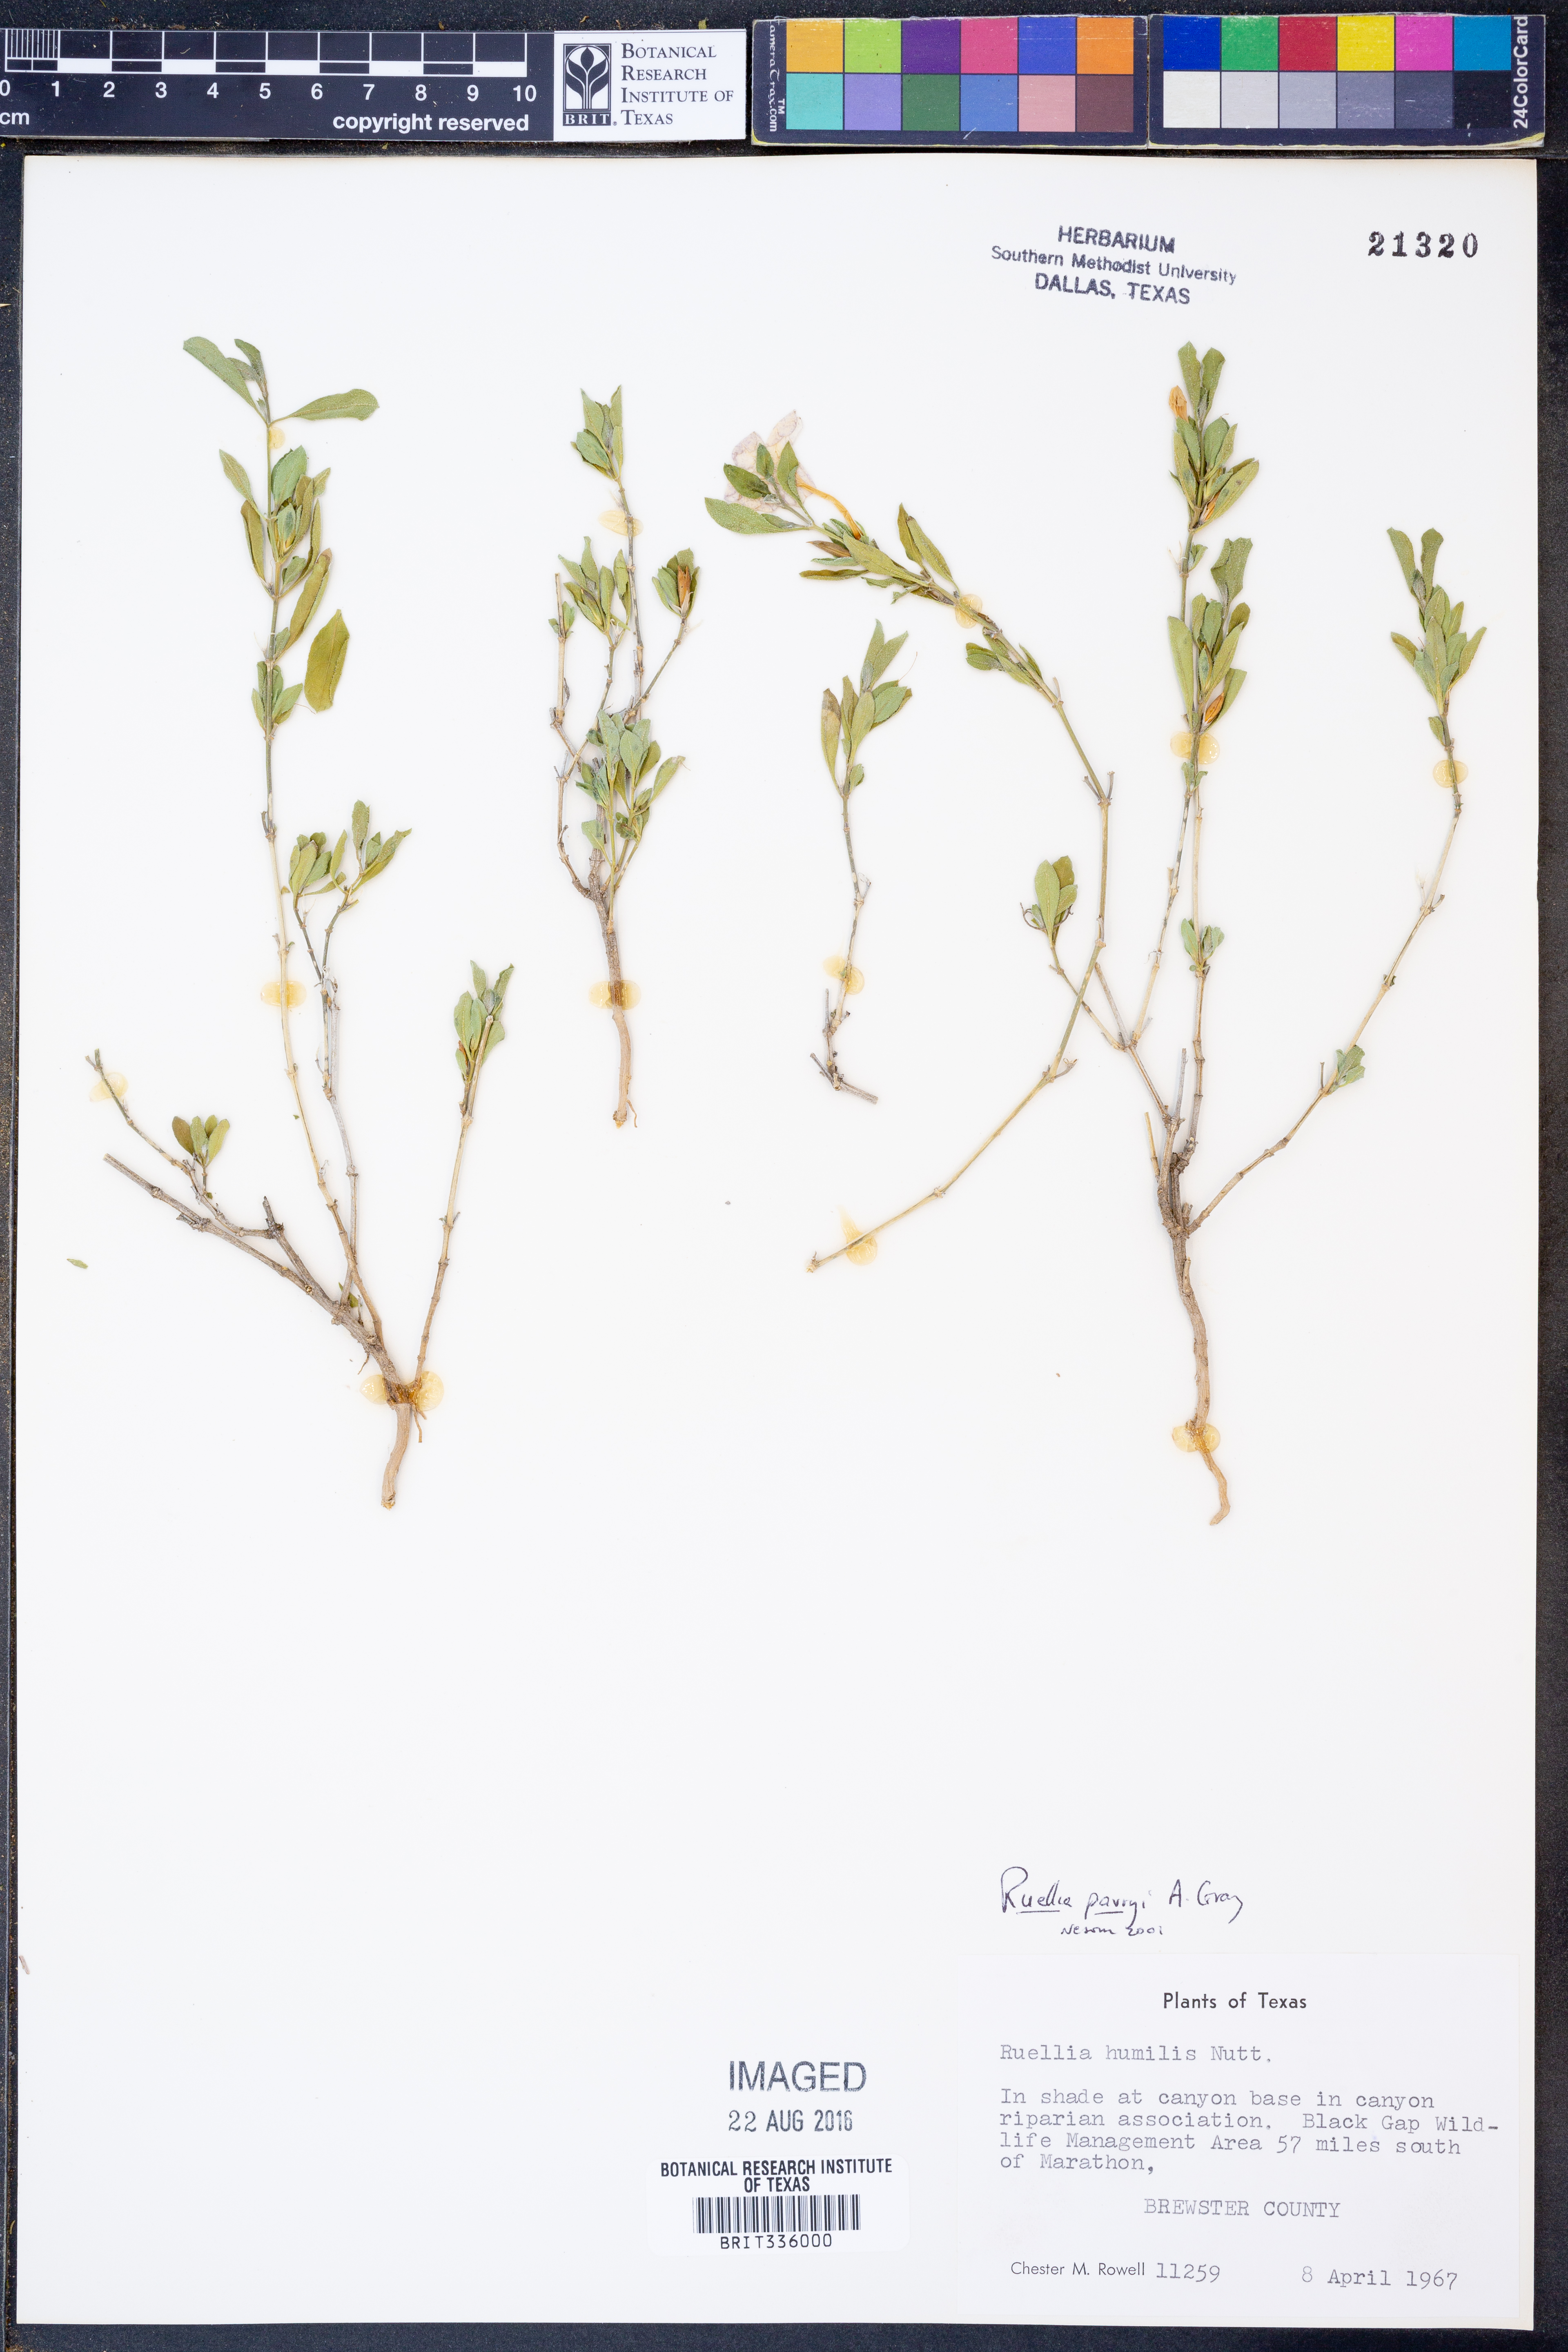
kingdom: Plantae
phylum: Tracheophyta
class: Magnoliopsida
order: Lamiales
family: Acanthaceae
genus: Ruellia
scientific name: Ruellia parryi
